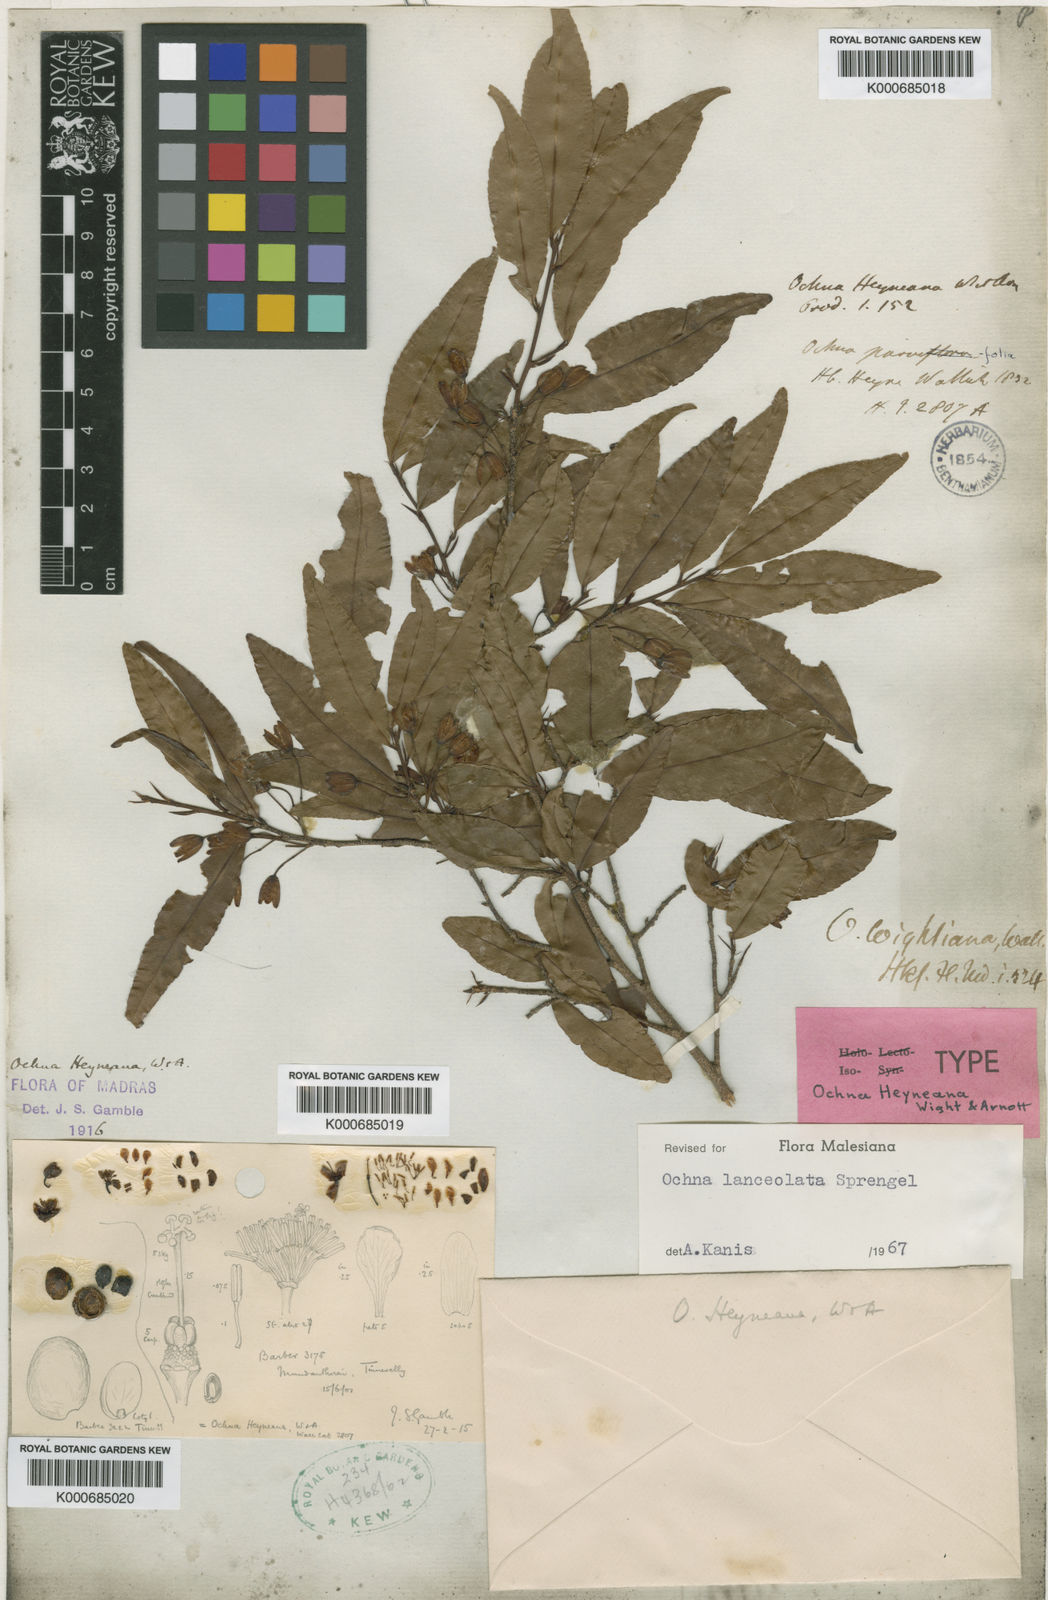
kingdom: Plantae
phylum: Tracheophyta
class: Magnoliopsida
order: Malpighiales
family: Ochnaceae
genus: Ochna
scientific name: Ochna lanceolata
